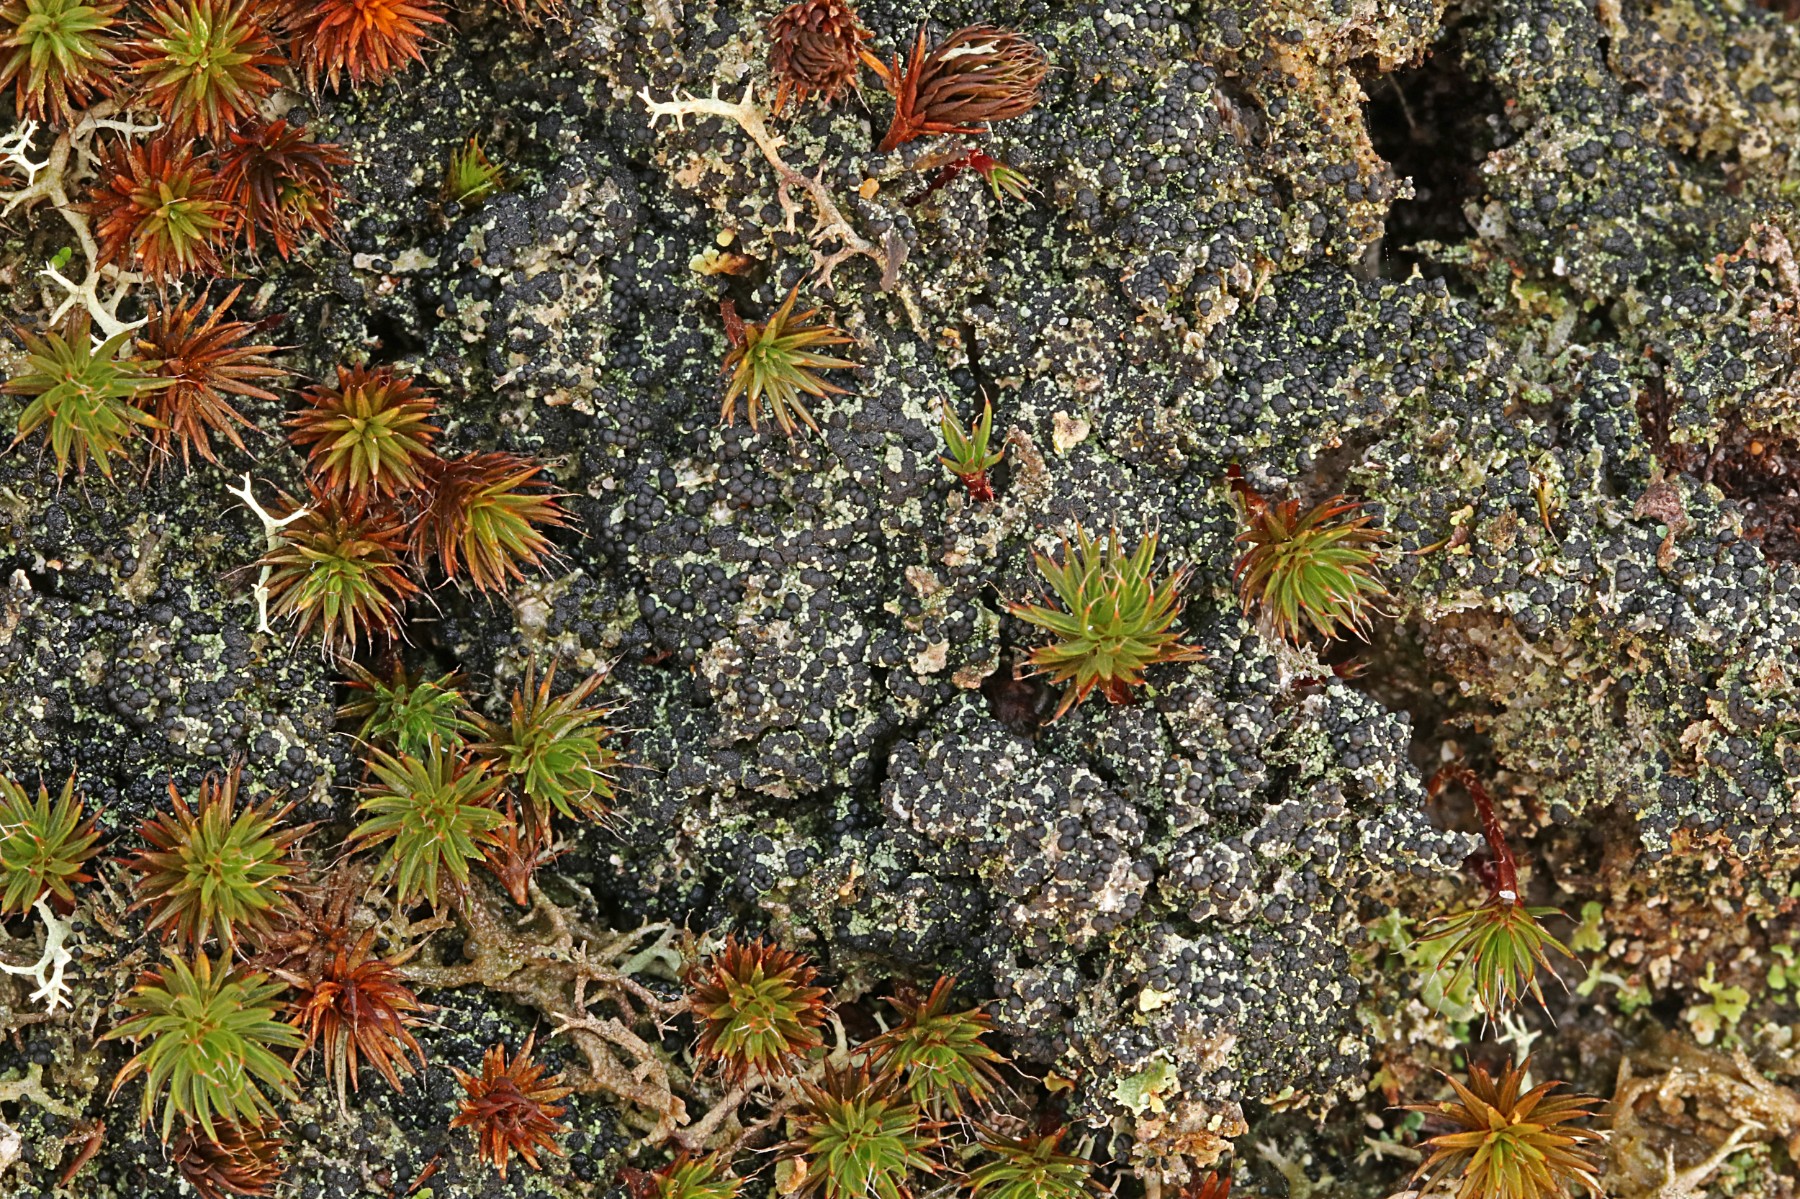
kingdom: Fungi
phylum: Ascomycota
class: Lecanoromycetes
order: Lecanorales
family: Byssolomataceae
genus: Micarea
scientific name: Micarea lignaria
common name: tørve-knaplav
